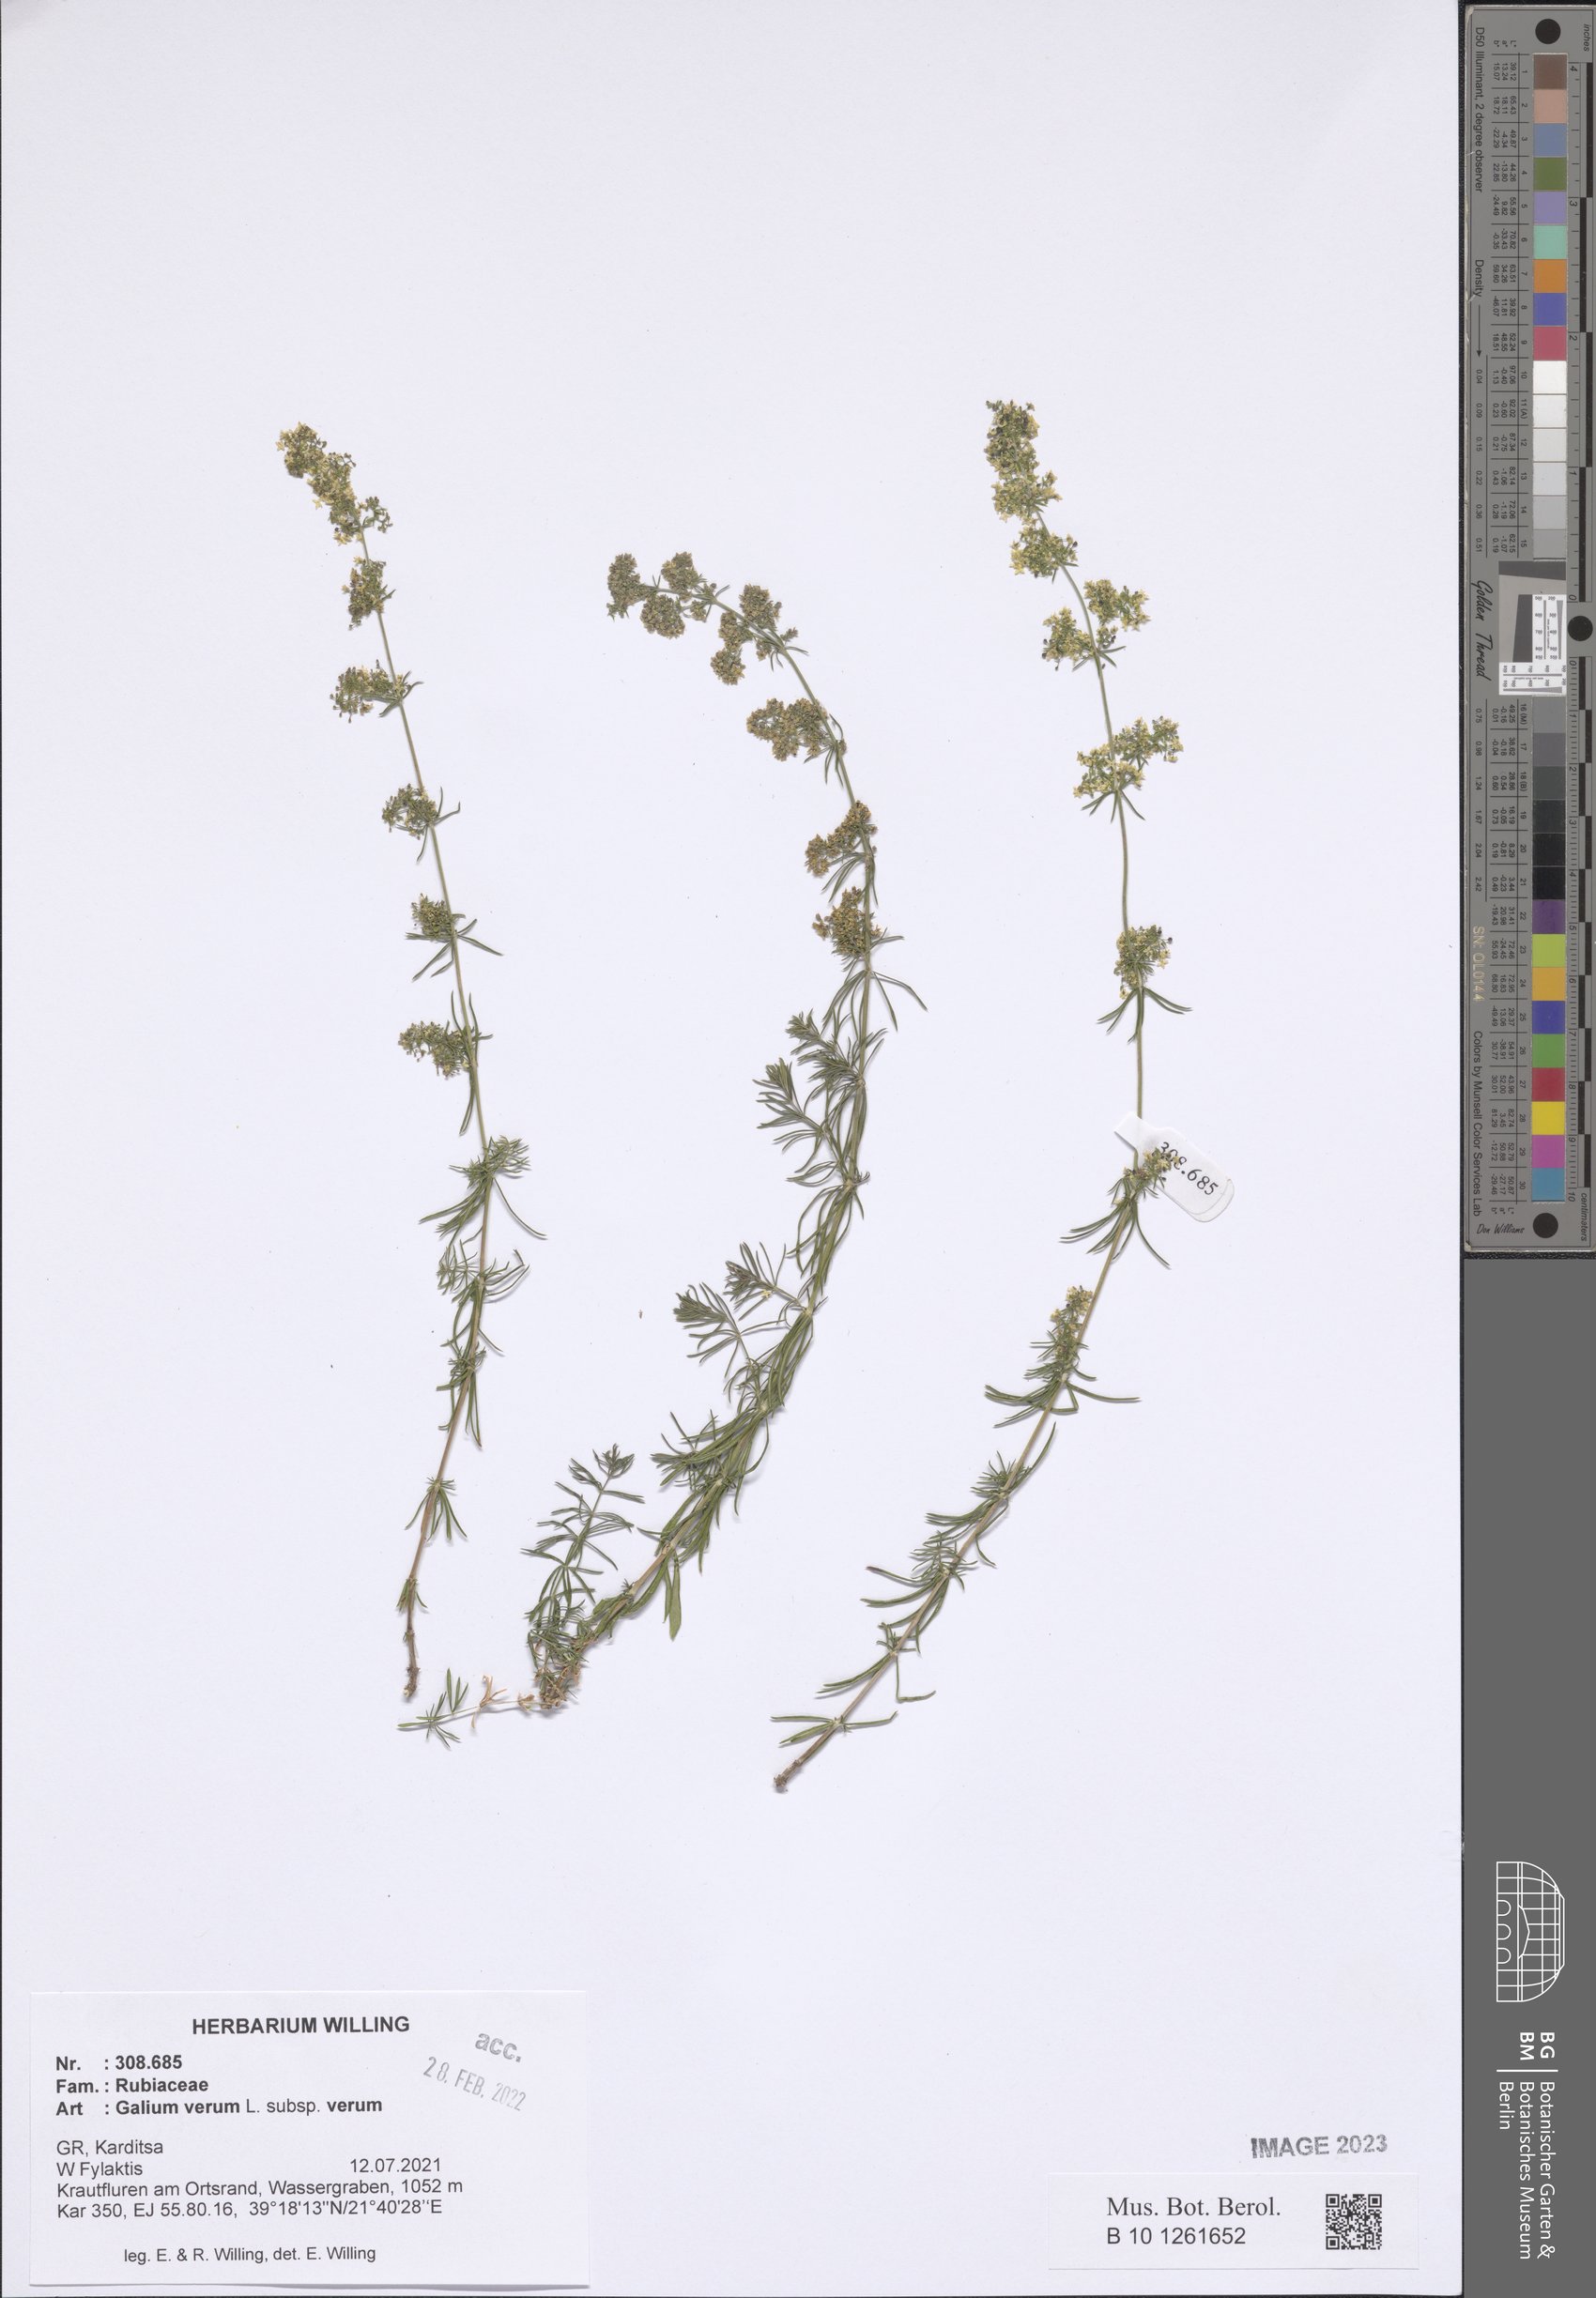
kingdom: Plantae
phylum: Tracheophyta
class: Magnoliopsida
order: Gentianales
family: Rubiaceae
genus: Galium
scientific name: Galium verum
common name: Lady's bedstraw
